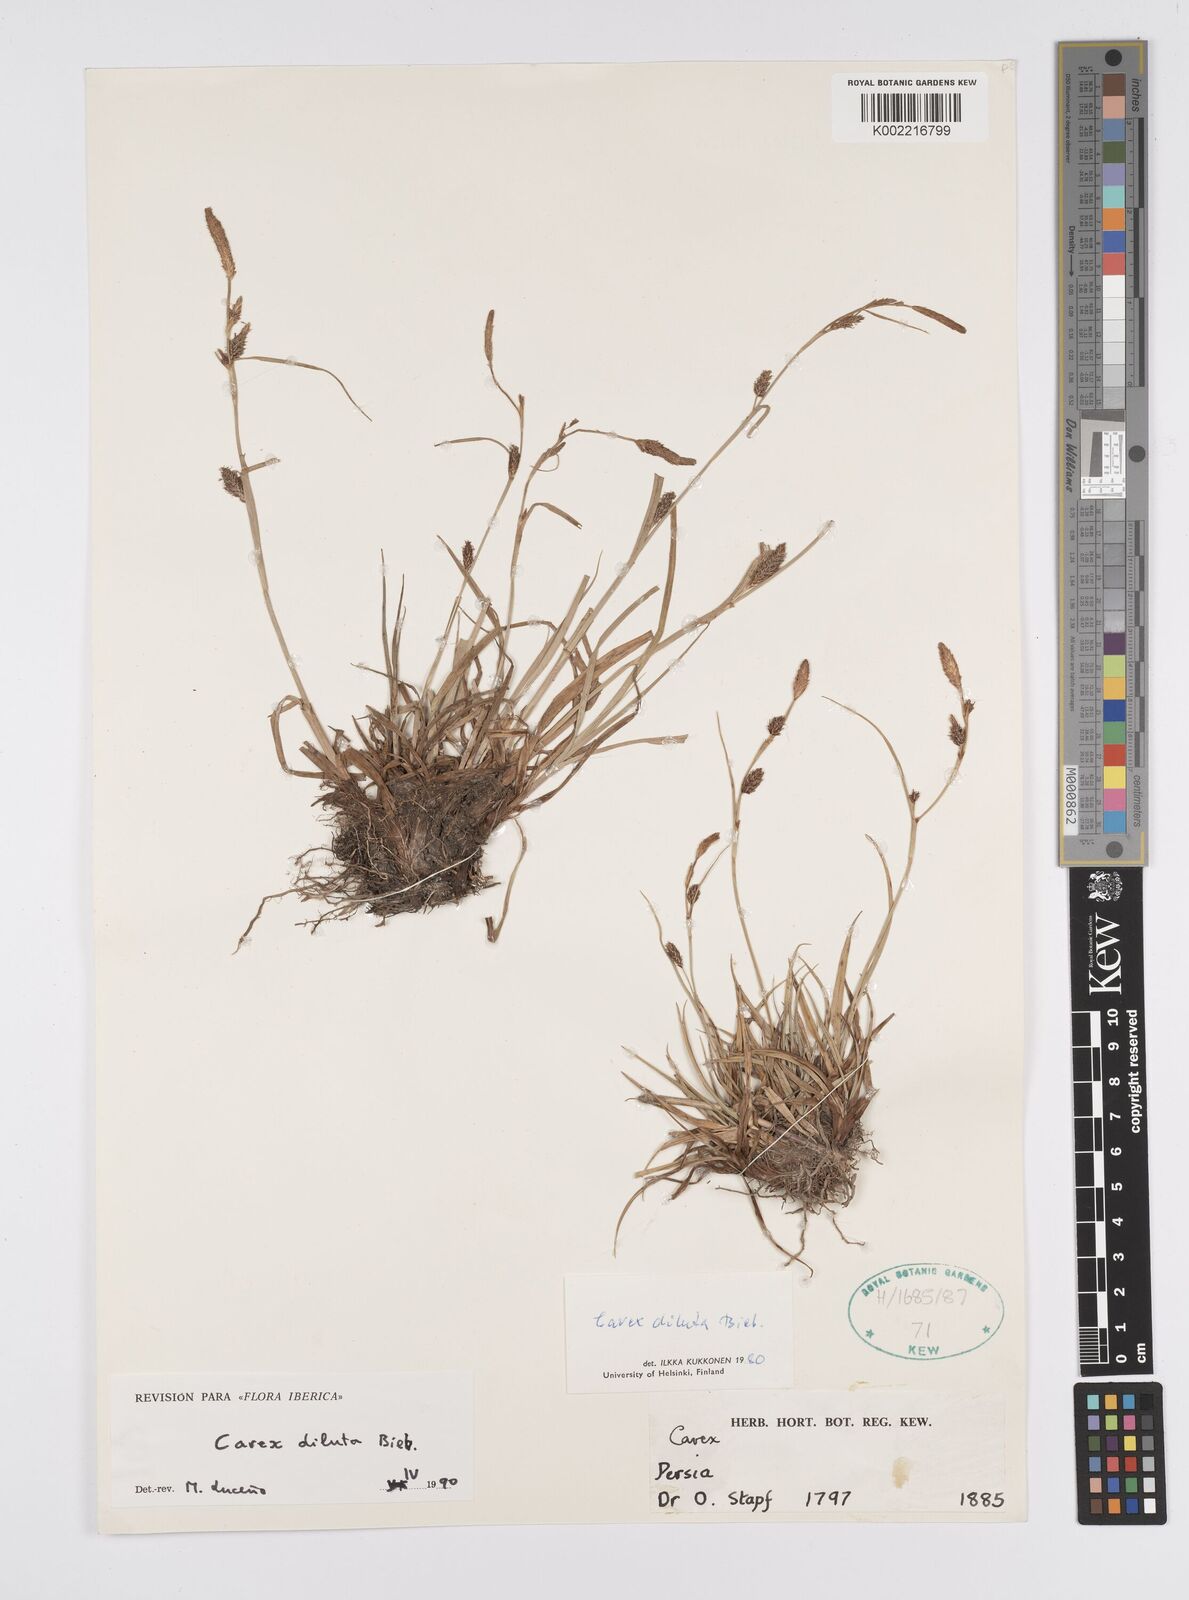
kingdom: Plantae
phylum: Tracheophyta
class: Liliopsida
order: Poales
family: Cyperaceae
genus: Carex
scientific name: Carex diluta
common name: Sedge
